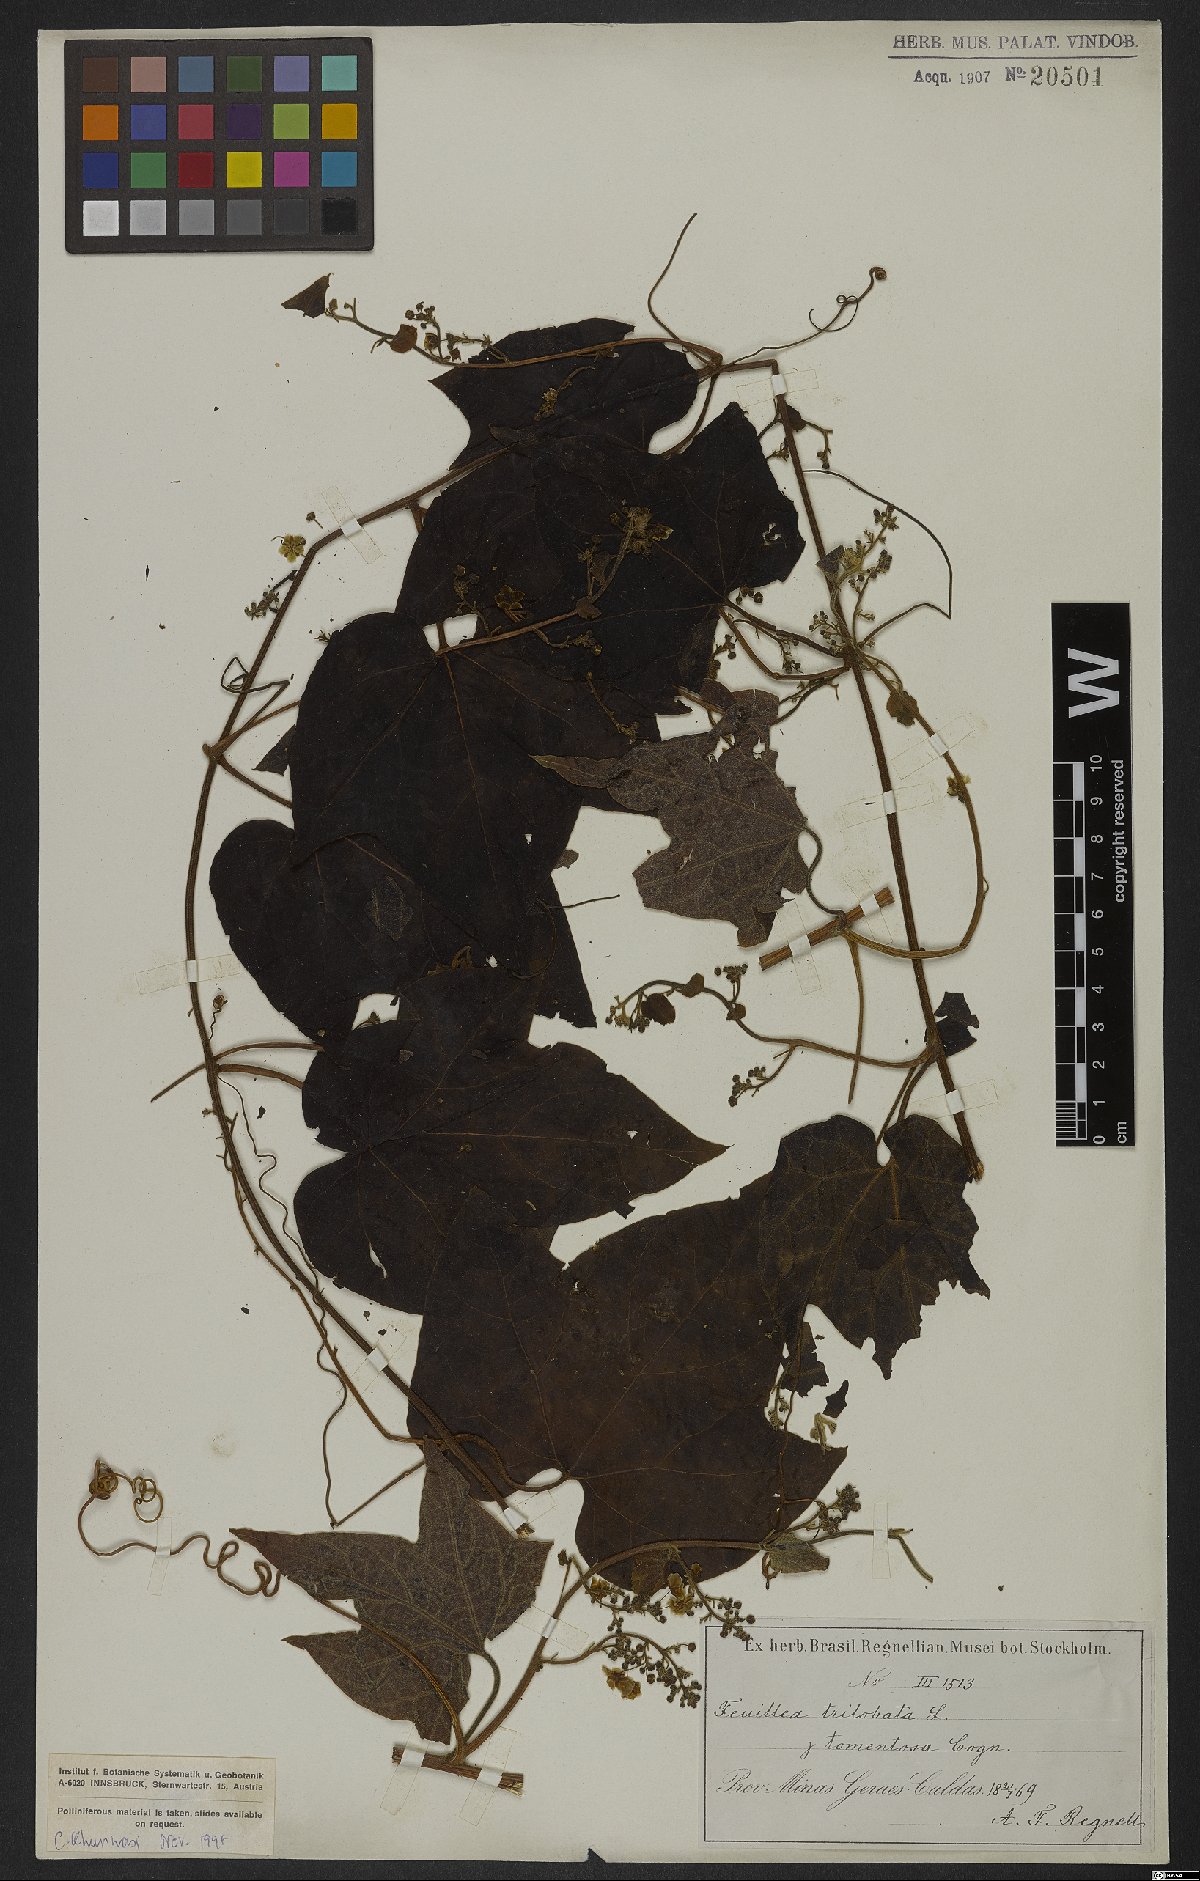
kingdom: Plantae
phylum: Tracheophyta
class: Magnoliopsida
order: Cucurbitales
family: Cucurbitaceae
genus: Fevillea
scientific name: Fevillea trilobata
